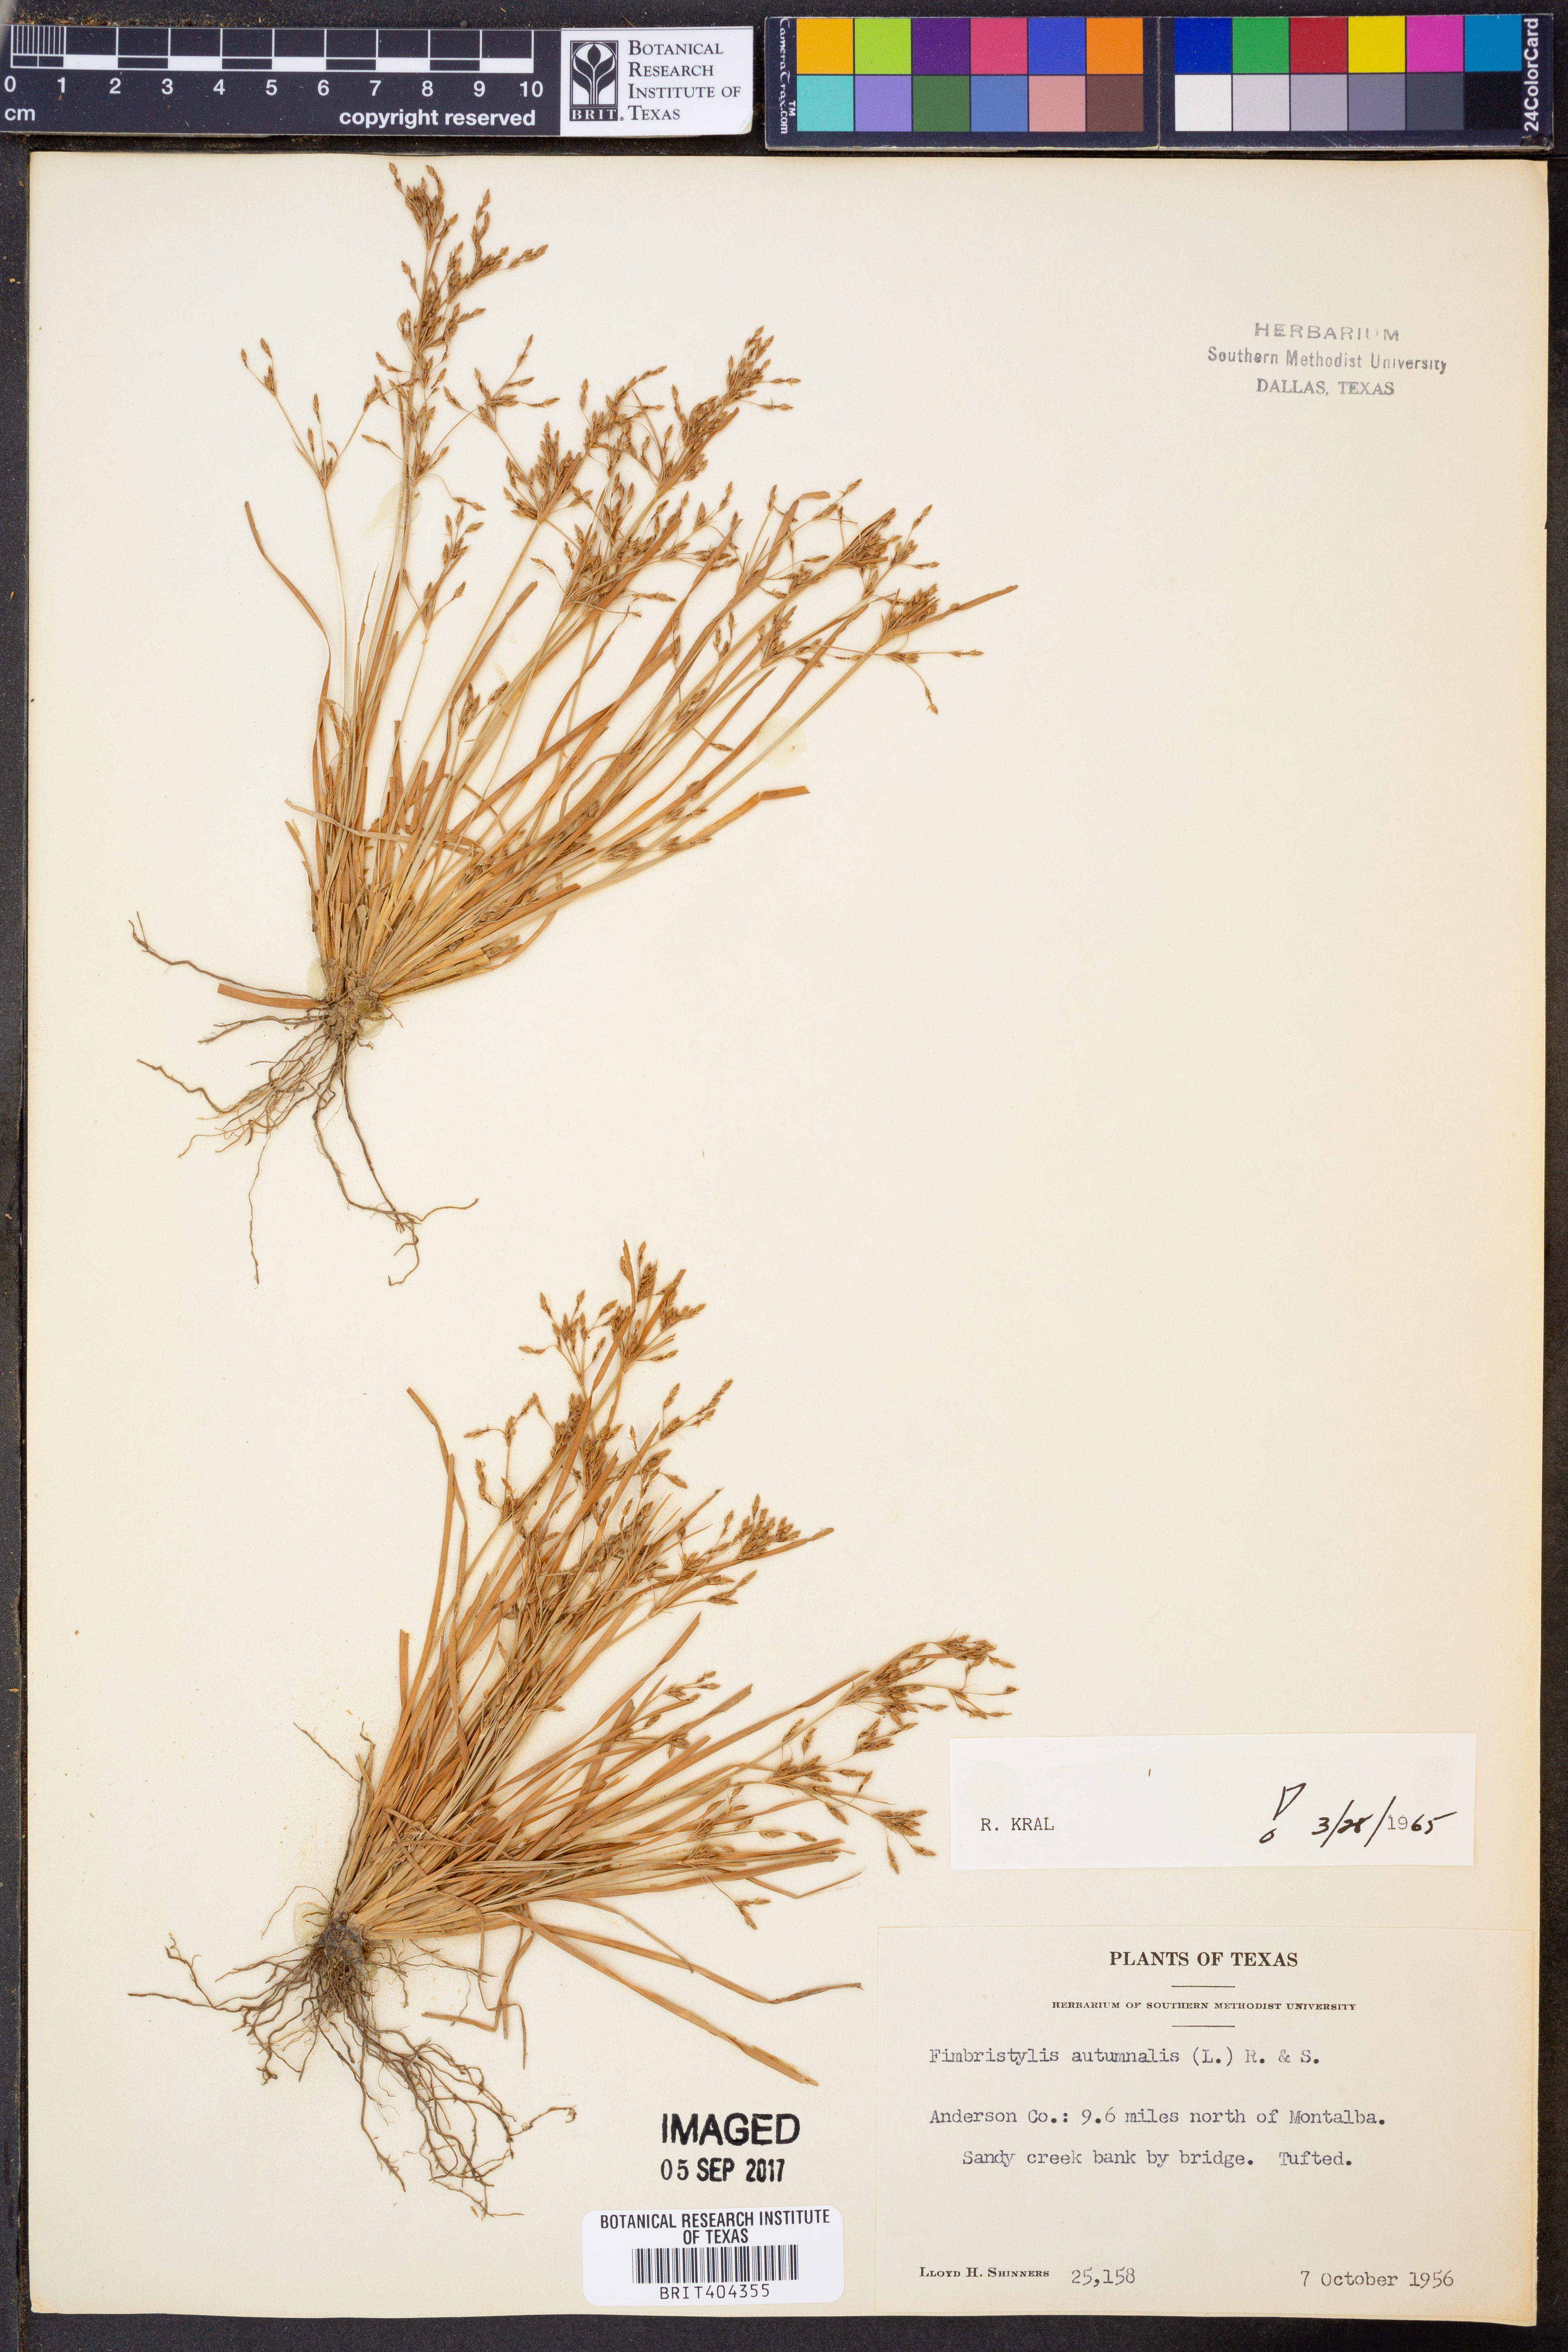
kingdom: Plantae
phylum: Tracheophyta
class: Liliopsida
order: Poales
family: Cyperaceae
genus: Fimbristylis
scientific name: Fimbristylis autumnalis
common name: Slender fimbristylis
